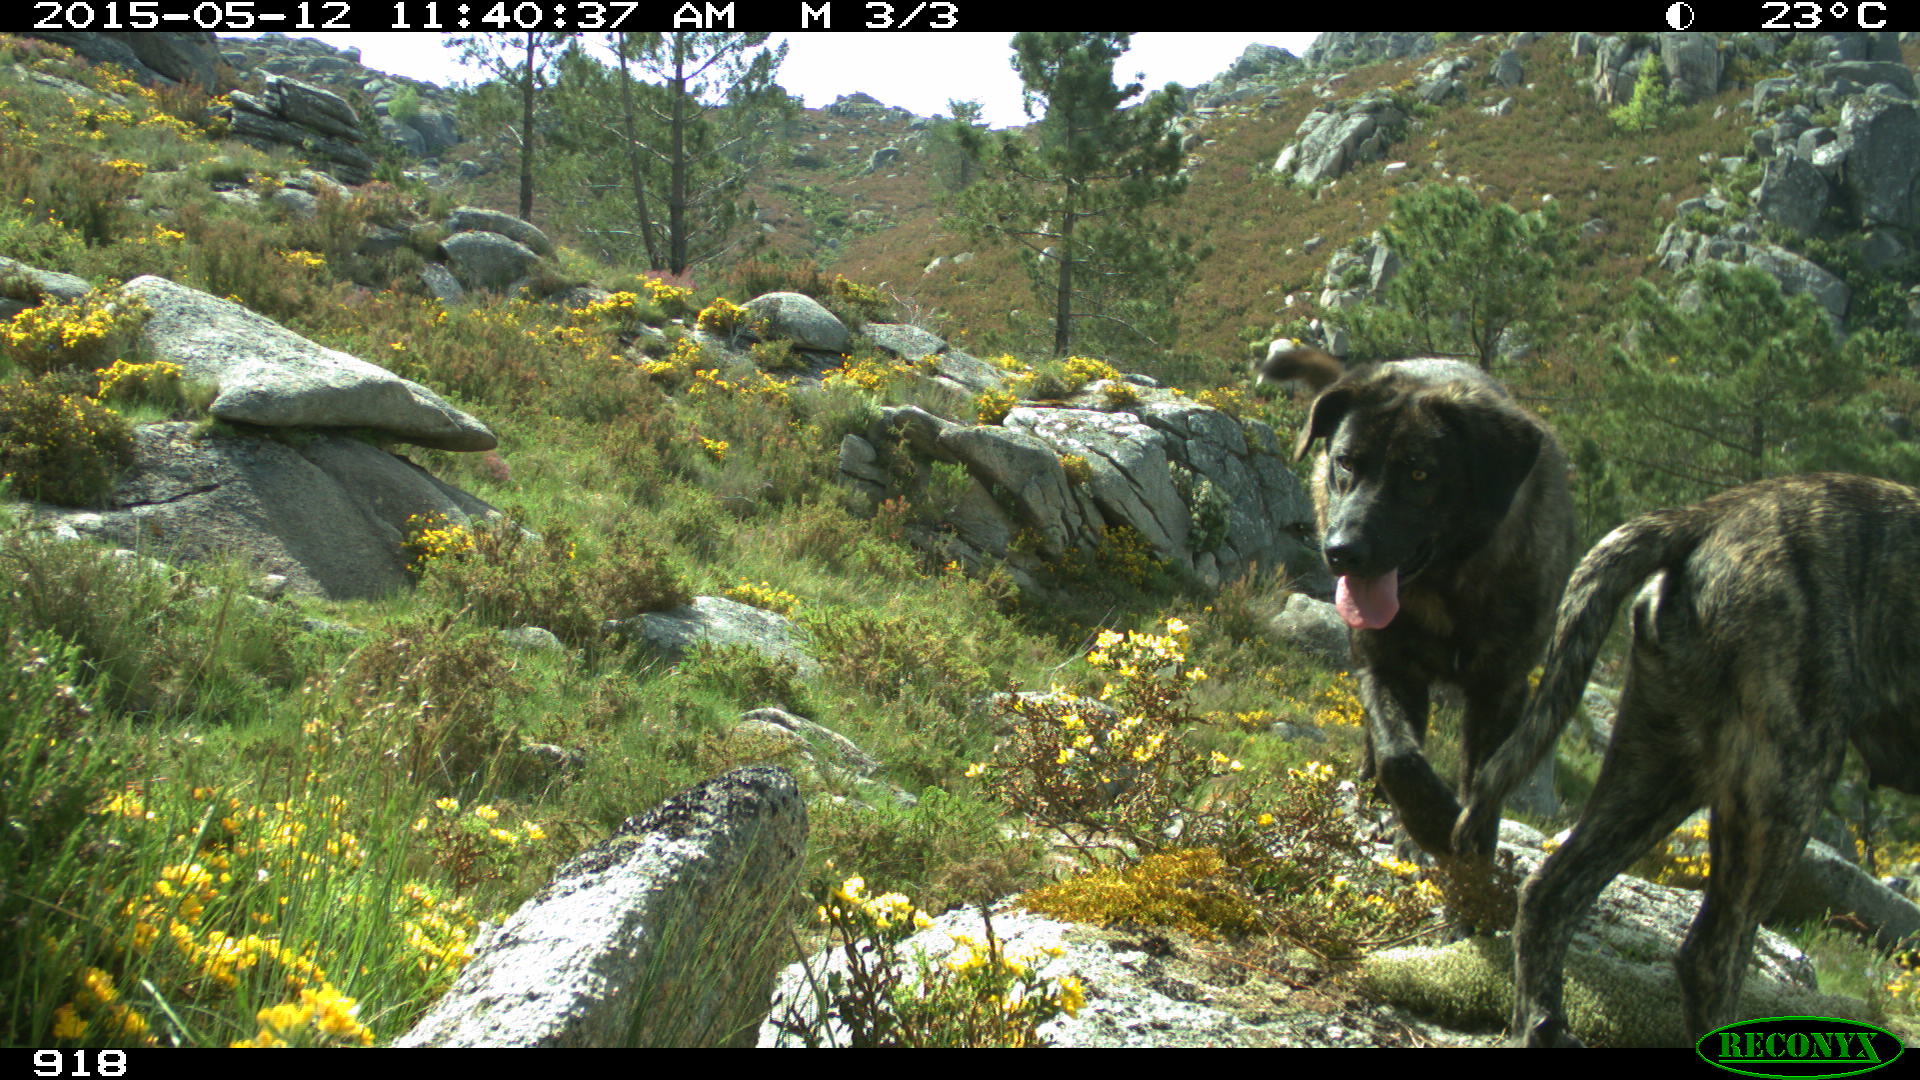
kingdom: Animalia
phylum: Chordata
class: Mammalia
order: Carnivora
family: Canidae
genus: Canis
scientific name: Canis lupus
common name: Gray wolf
